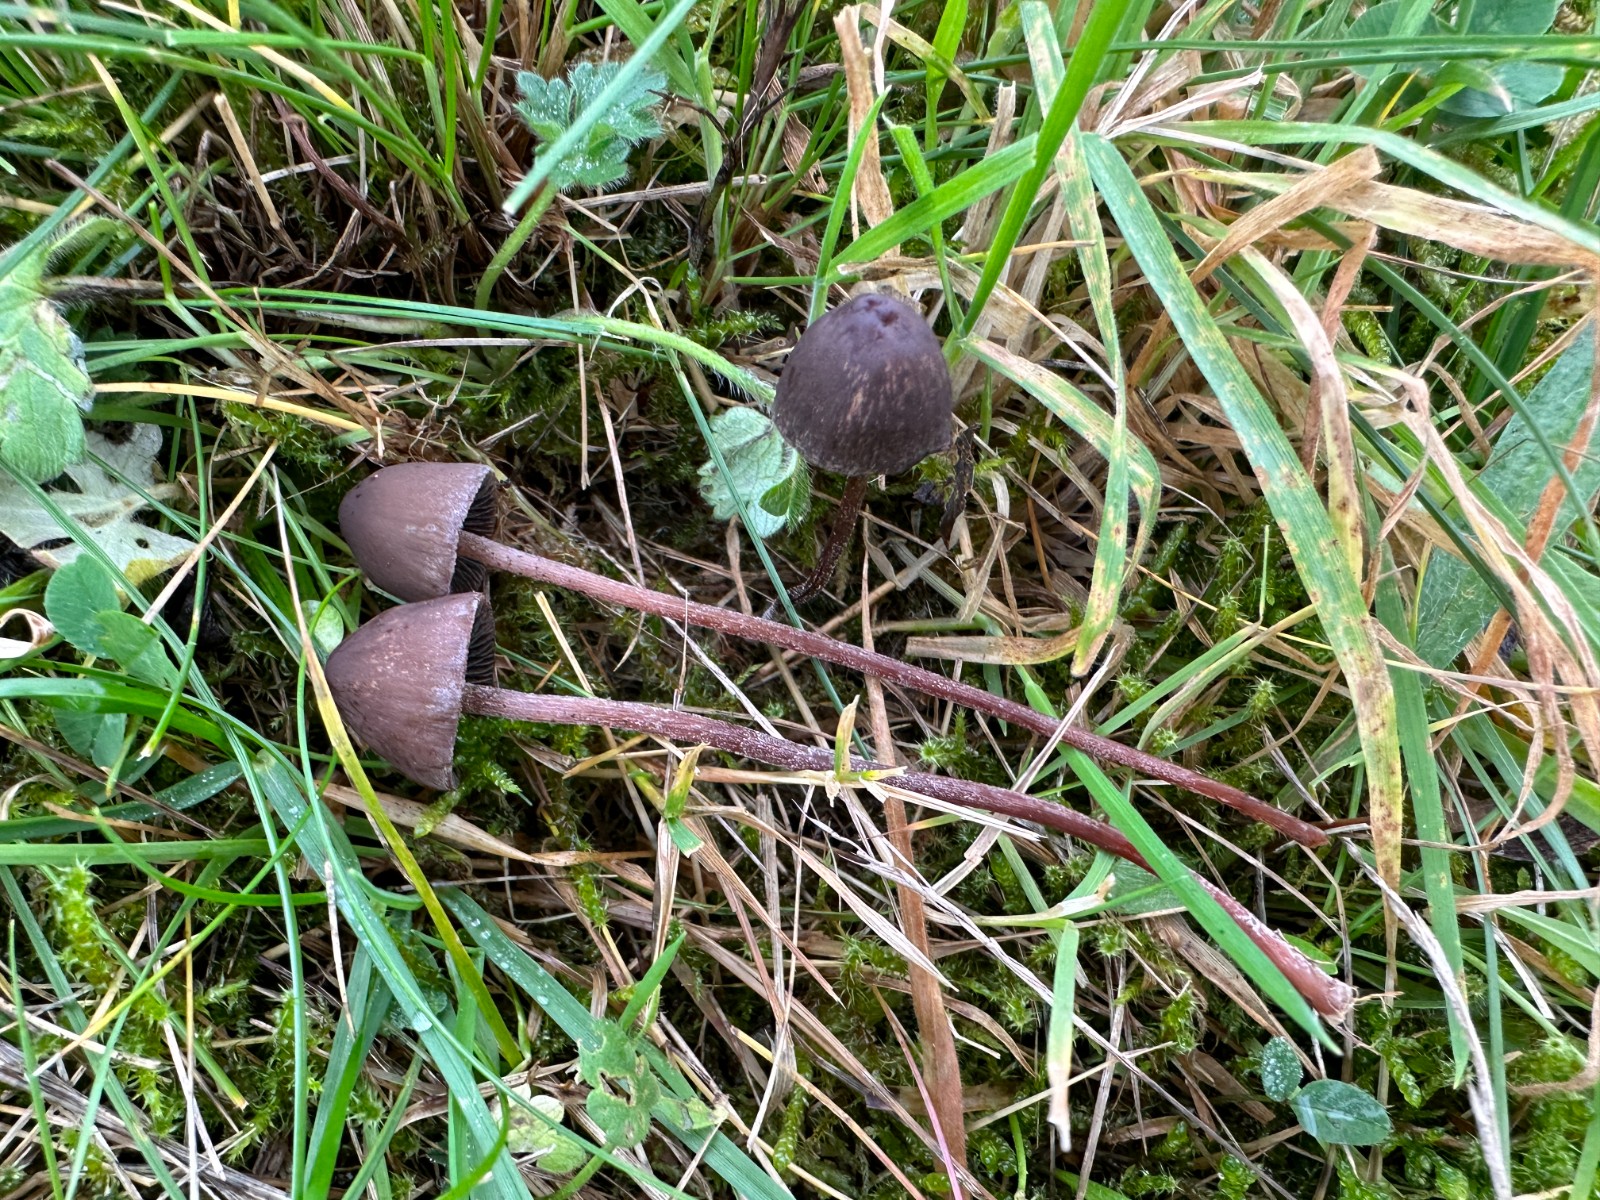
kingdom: Fungi
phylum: Basidiomycota
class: Agaricomycetes
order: Agaricales
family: Bolbitiaceae
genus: Panaeolus
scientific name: Panaeolus acuminatus
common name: høj glanshat
